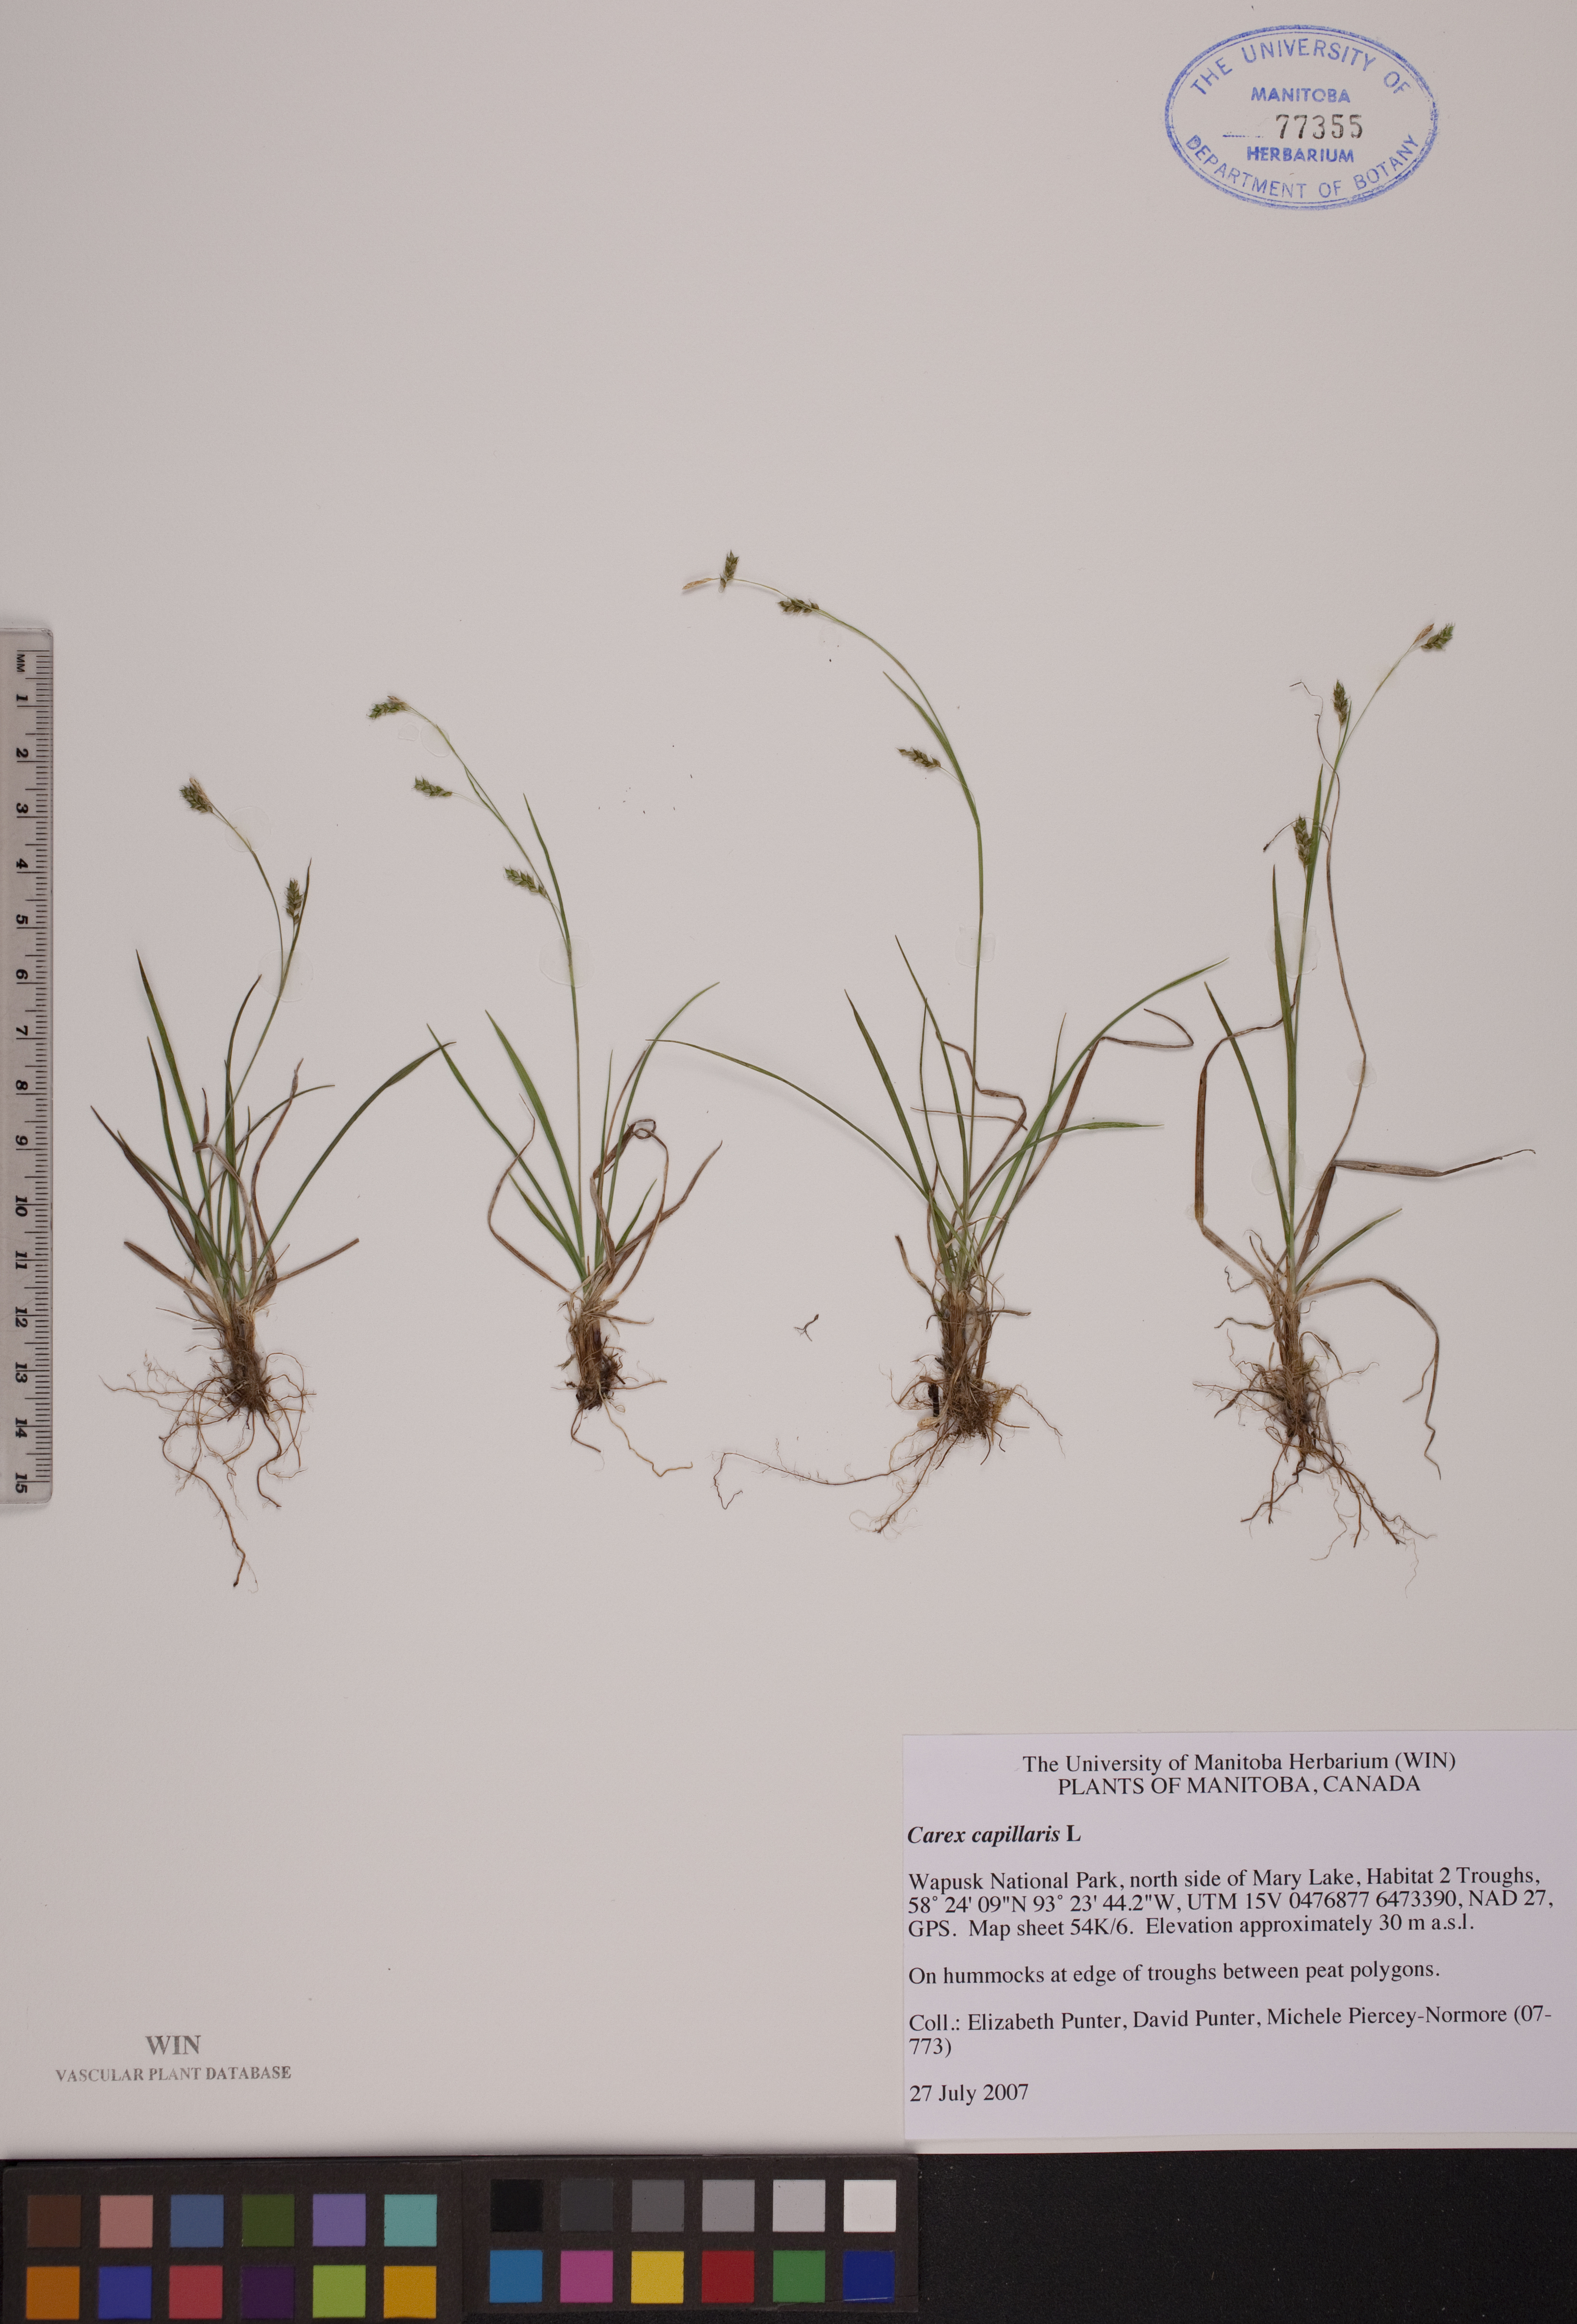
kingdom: Plantae
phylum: Tracheophyta
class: Liliopsida
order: Poales
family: Cyperaceae
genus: Carex
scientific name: Carex capillaris
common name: Hair sedge
